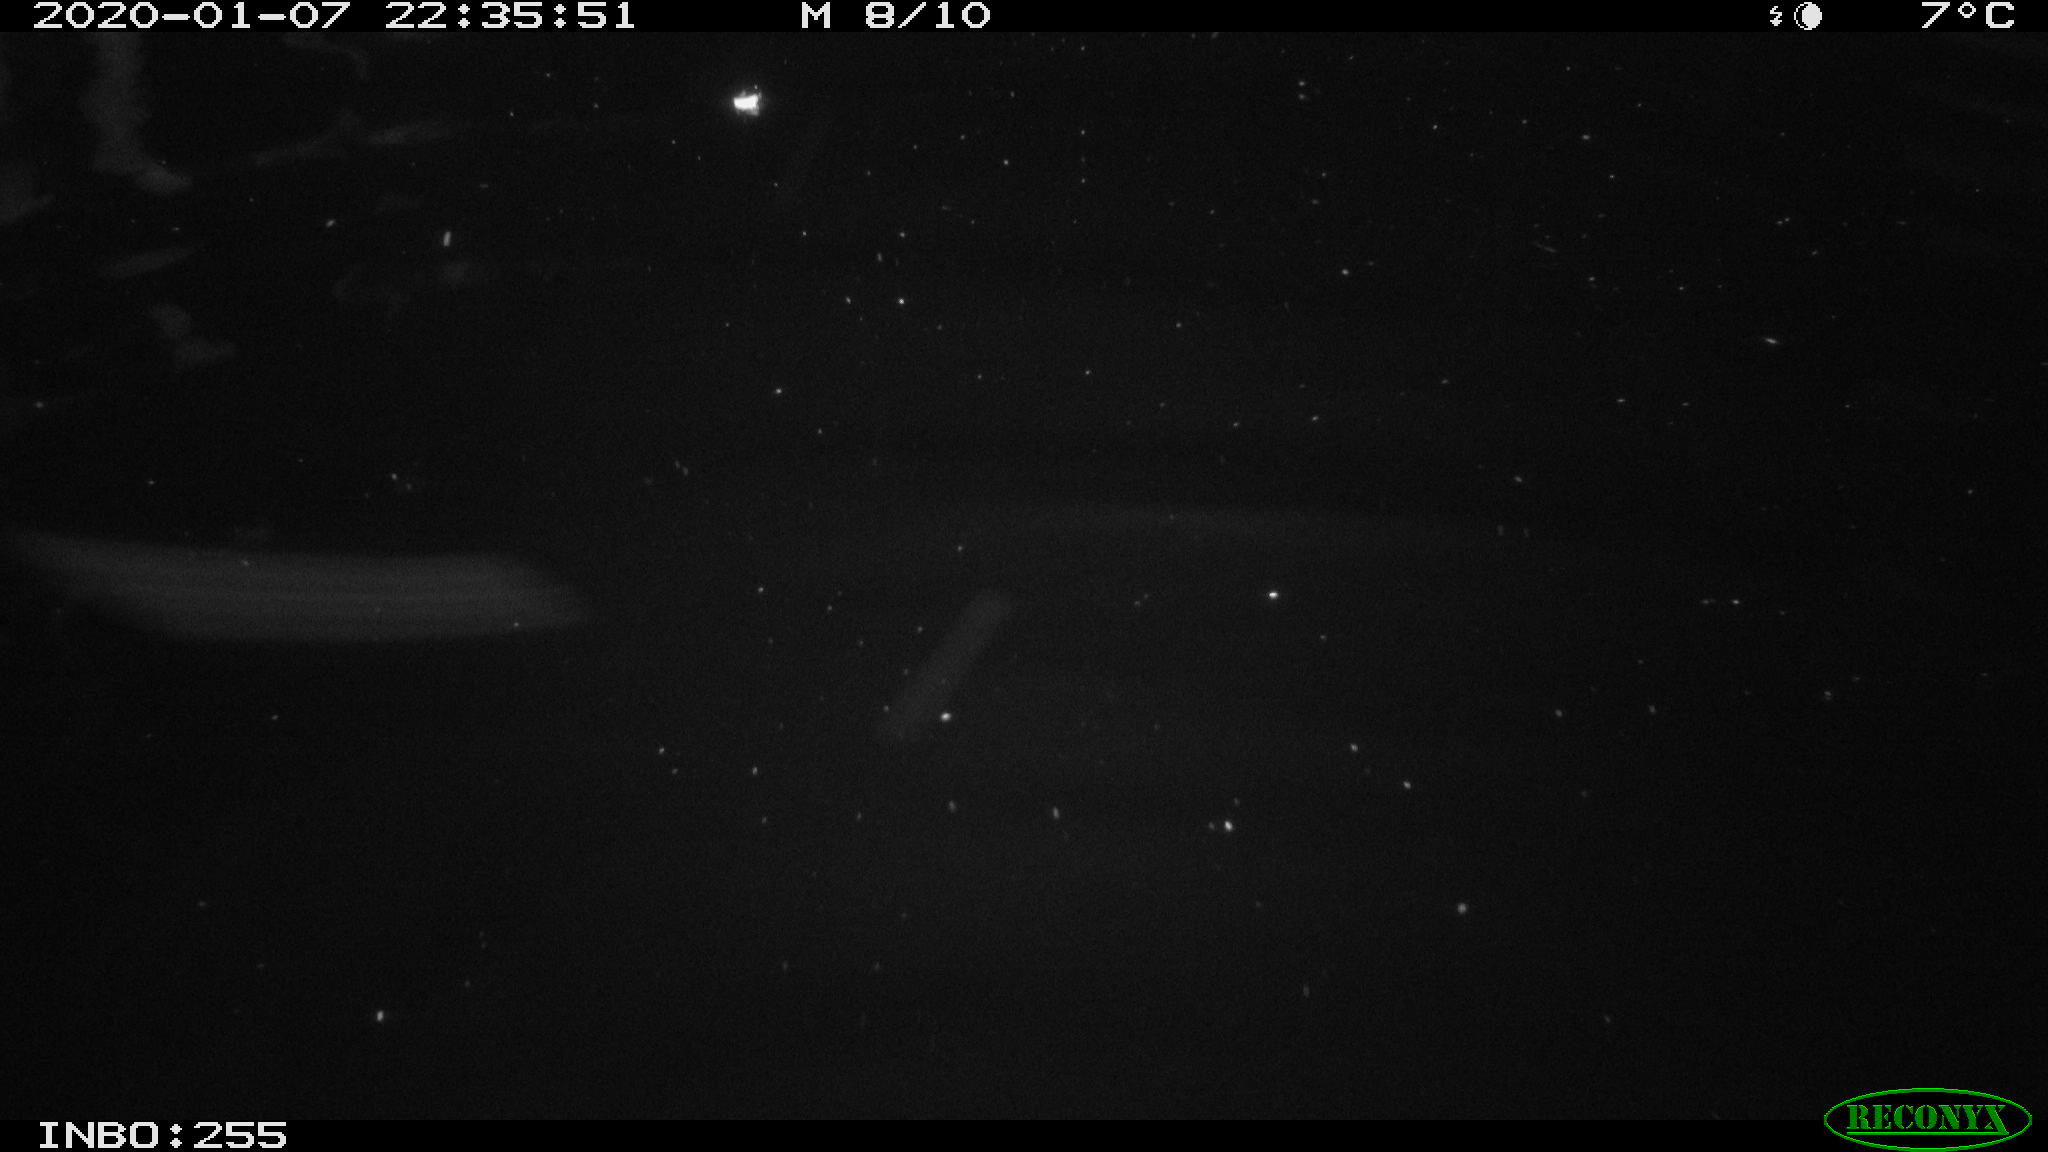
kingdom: Animalia
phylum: Chordata
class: Aves
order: Anseriformes
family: Anatidae
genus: Anas
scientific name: Anas platyrhynchos
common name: Mallard
